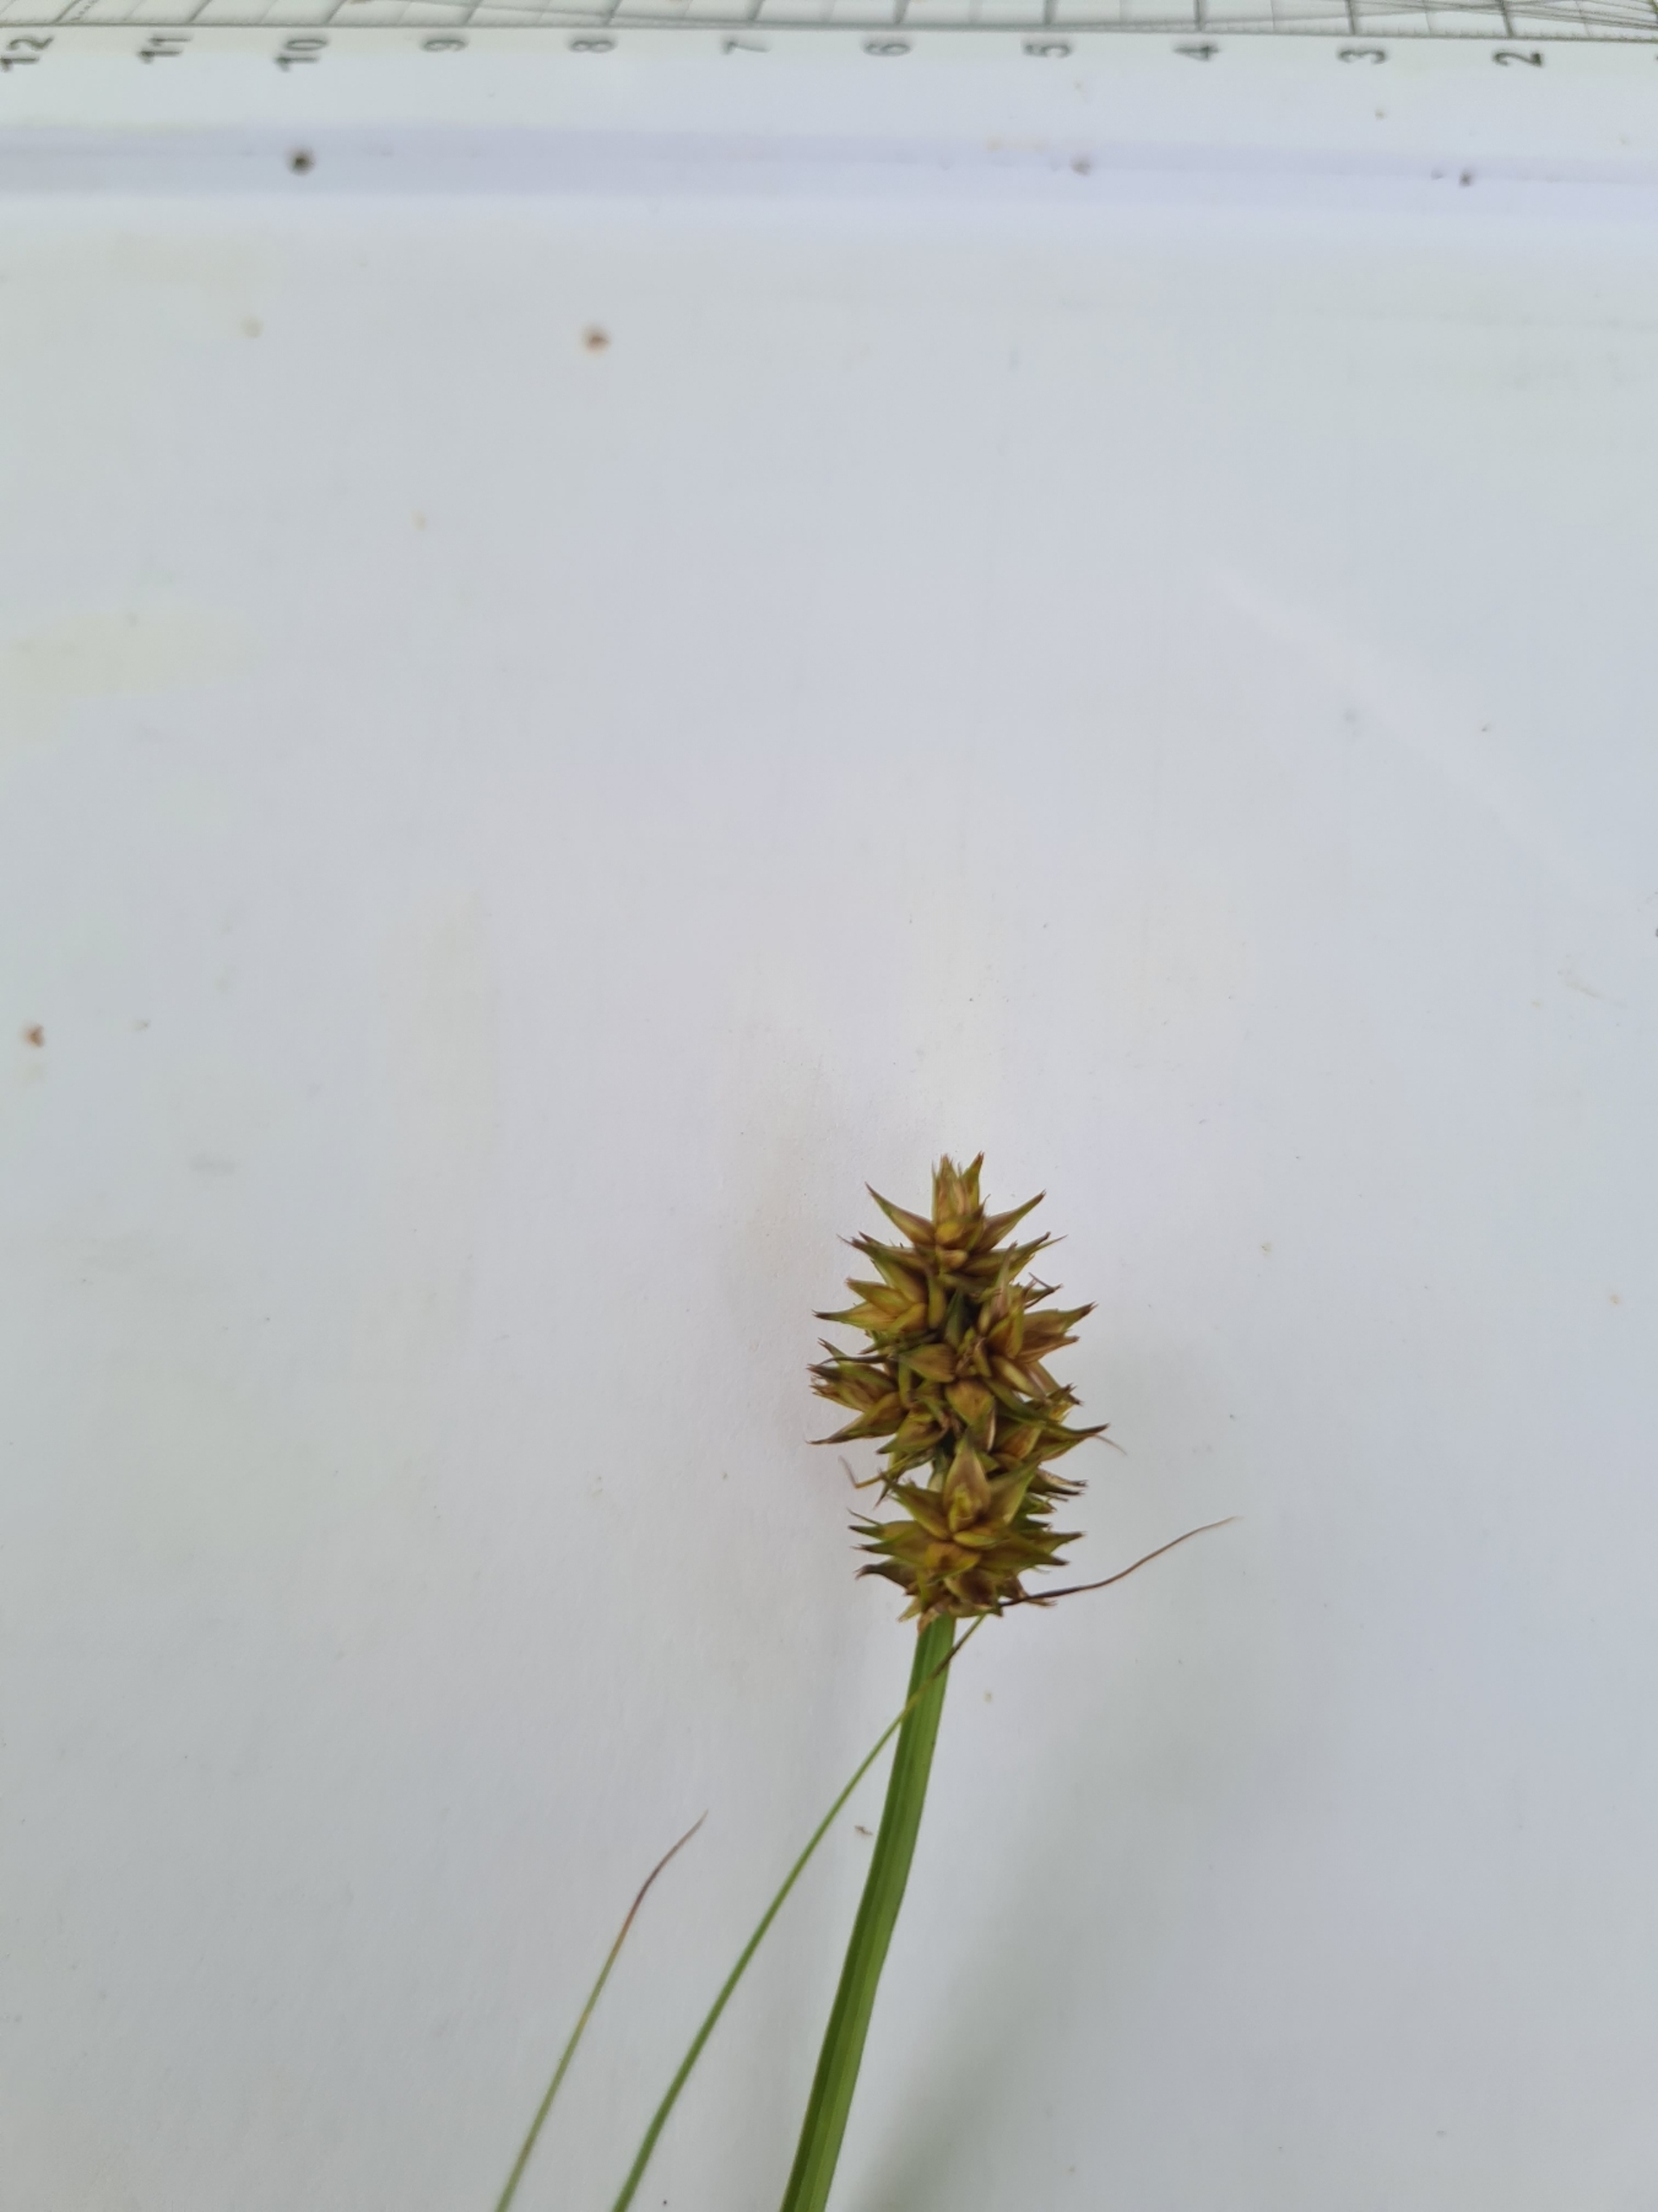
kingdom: Plantae
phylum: Tracheophyta
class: Liliopsida
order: Poales
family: Cyperaceae
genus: Carex
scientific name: Carex otrubae
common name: Sylt-star
